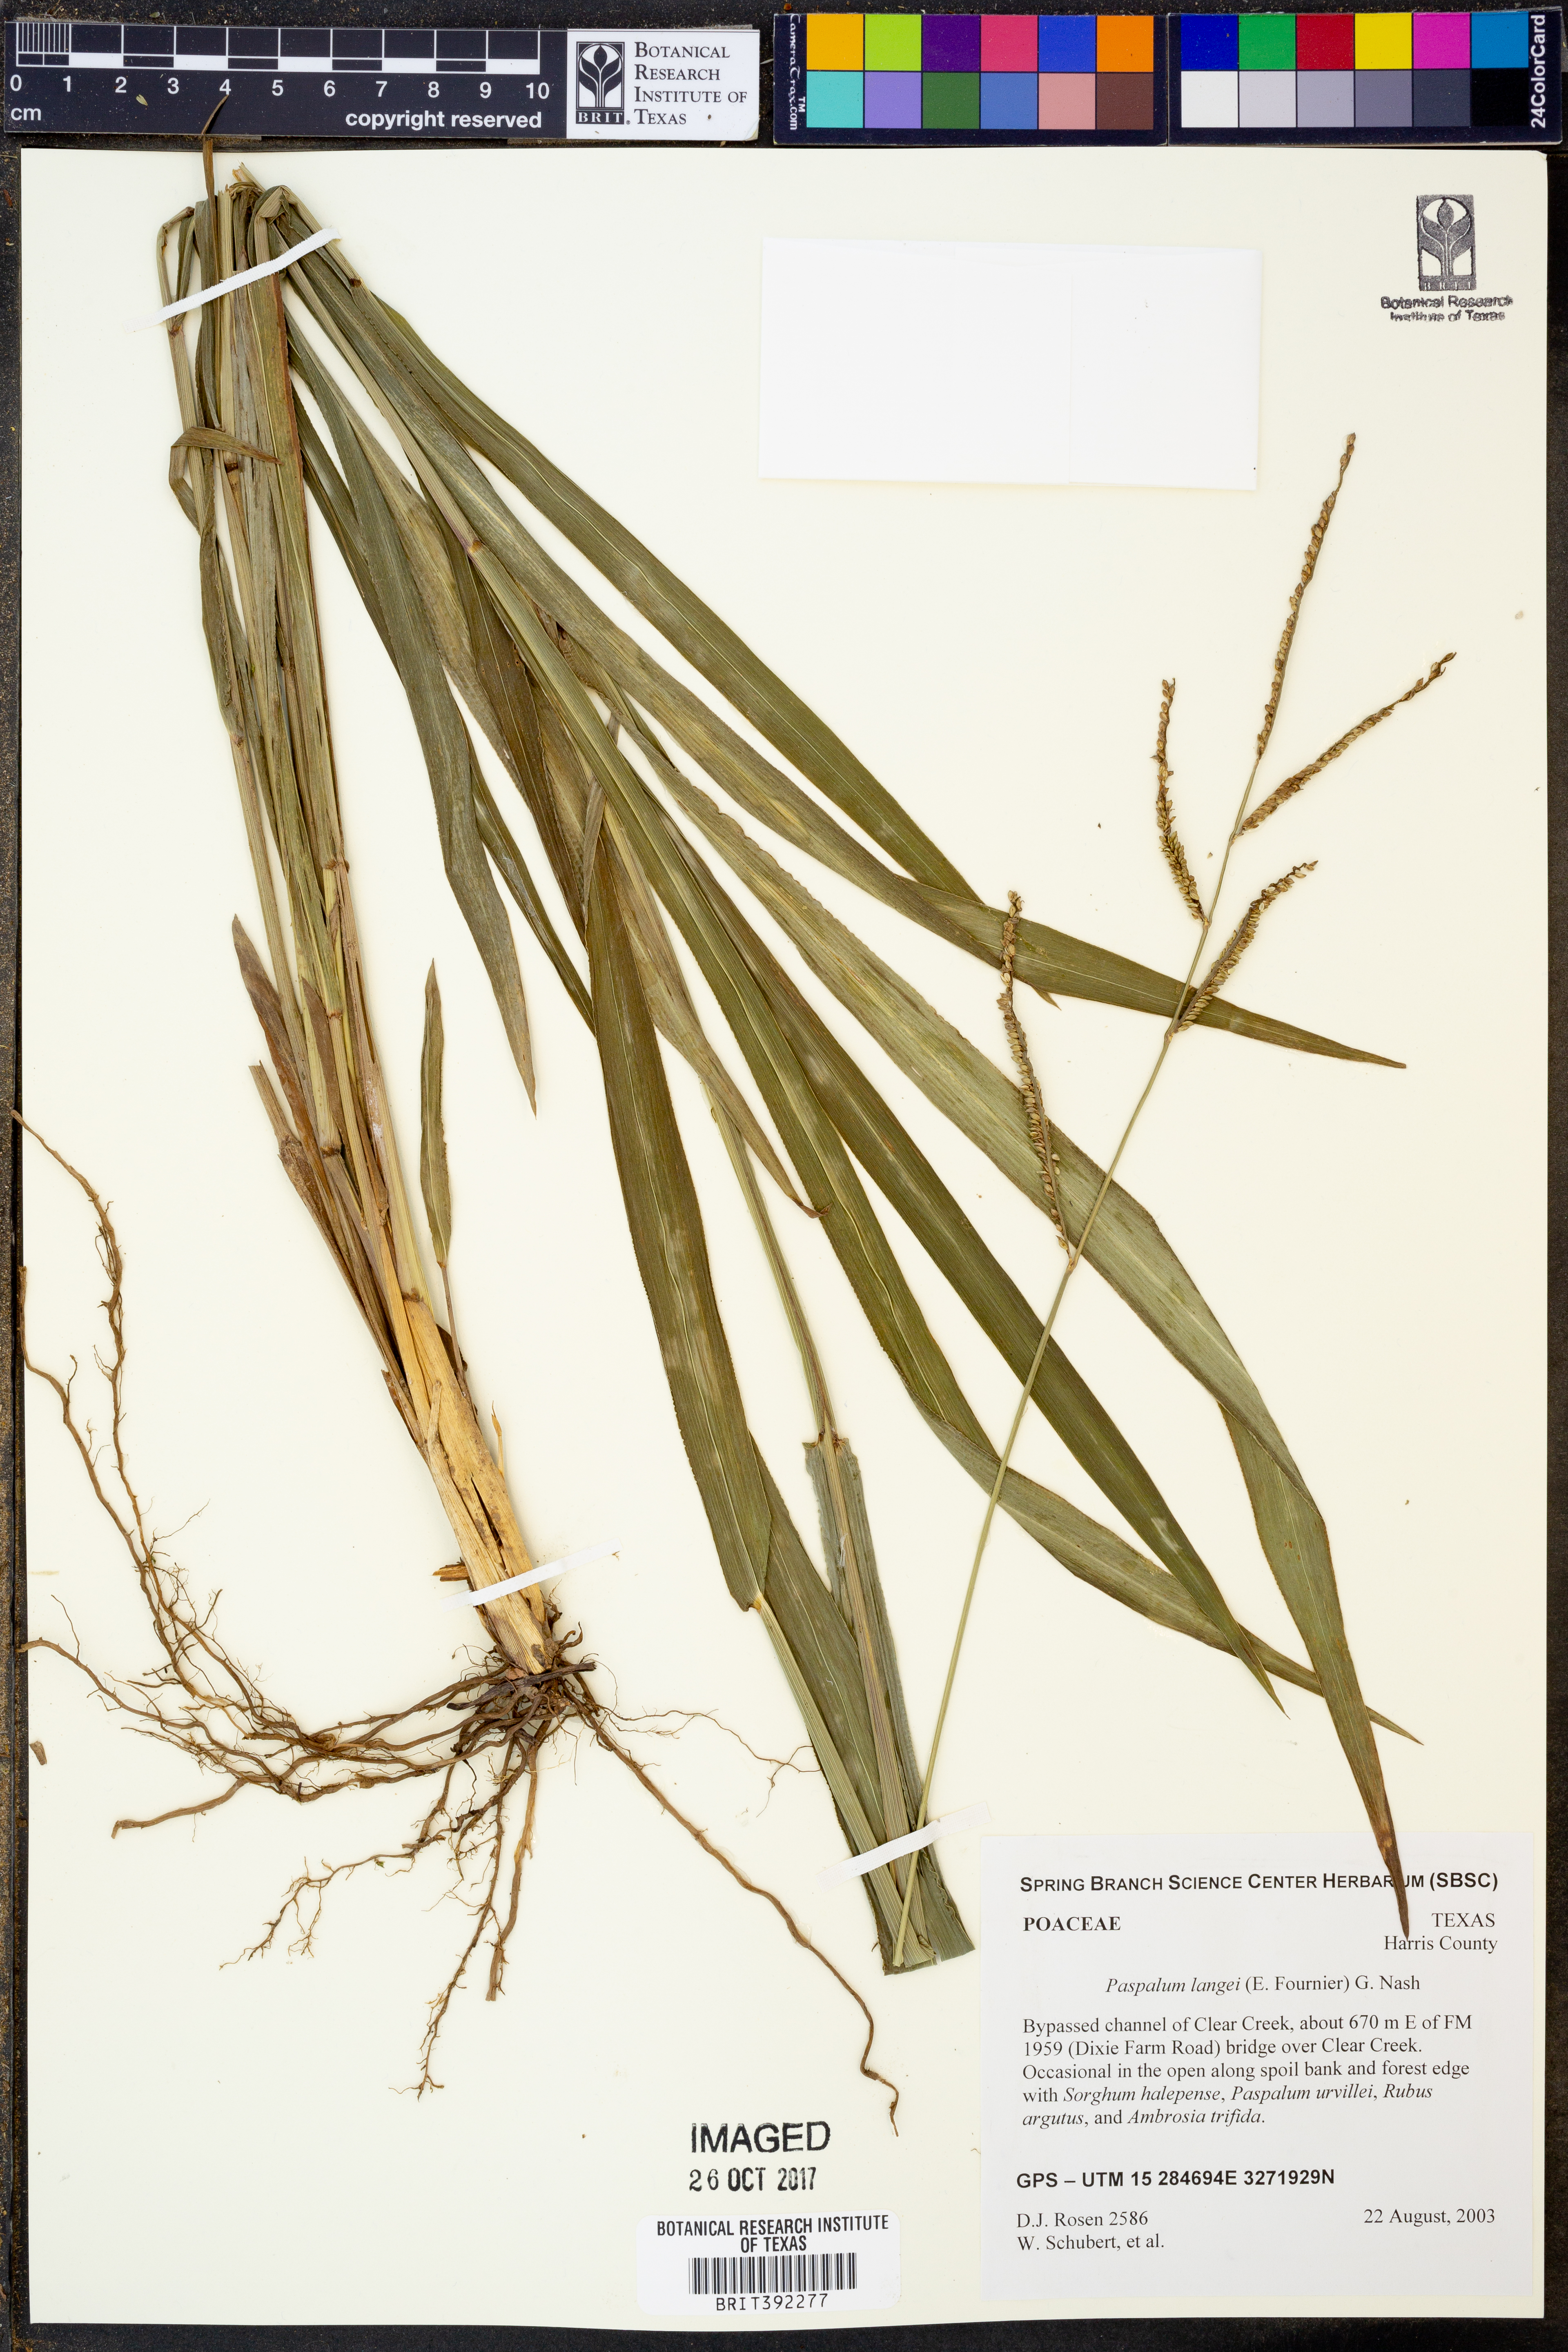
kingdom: Plantae
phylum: Tracheophyta
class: Liliopsida
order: Poales
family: Poaceae
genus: Paspalum
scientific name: Paspalum langei
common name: Rusty-seed paspalum
